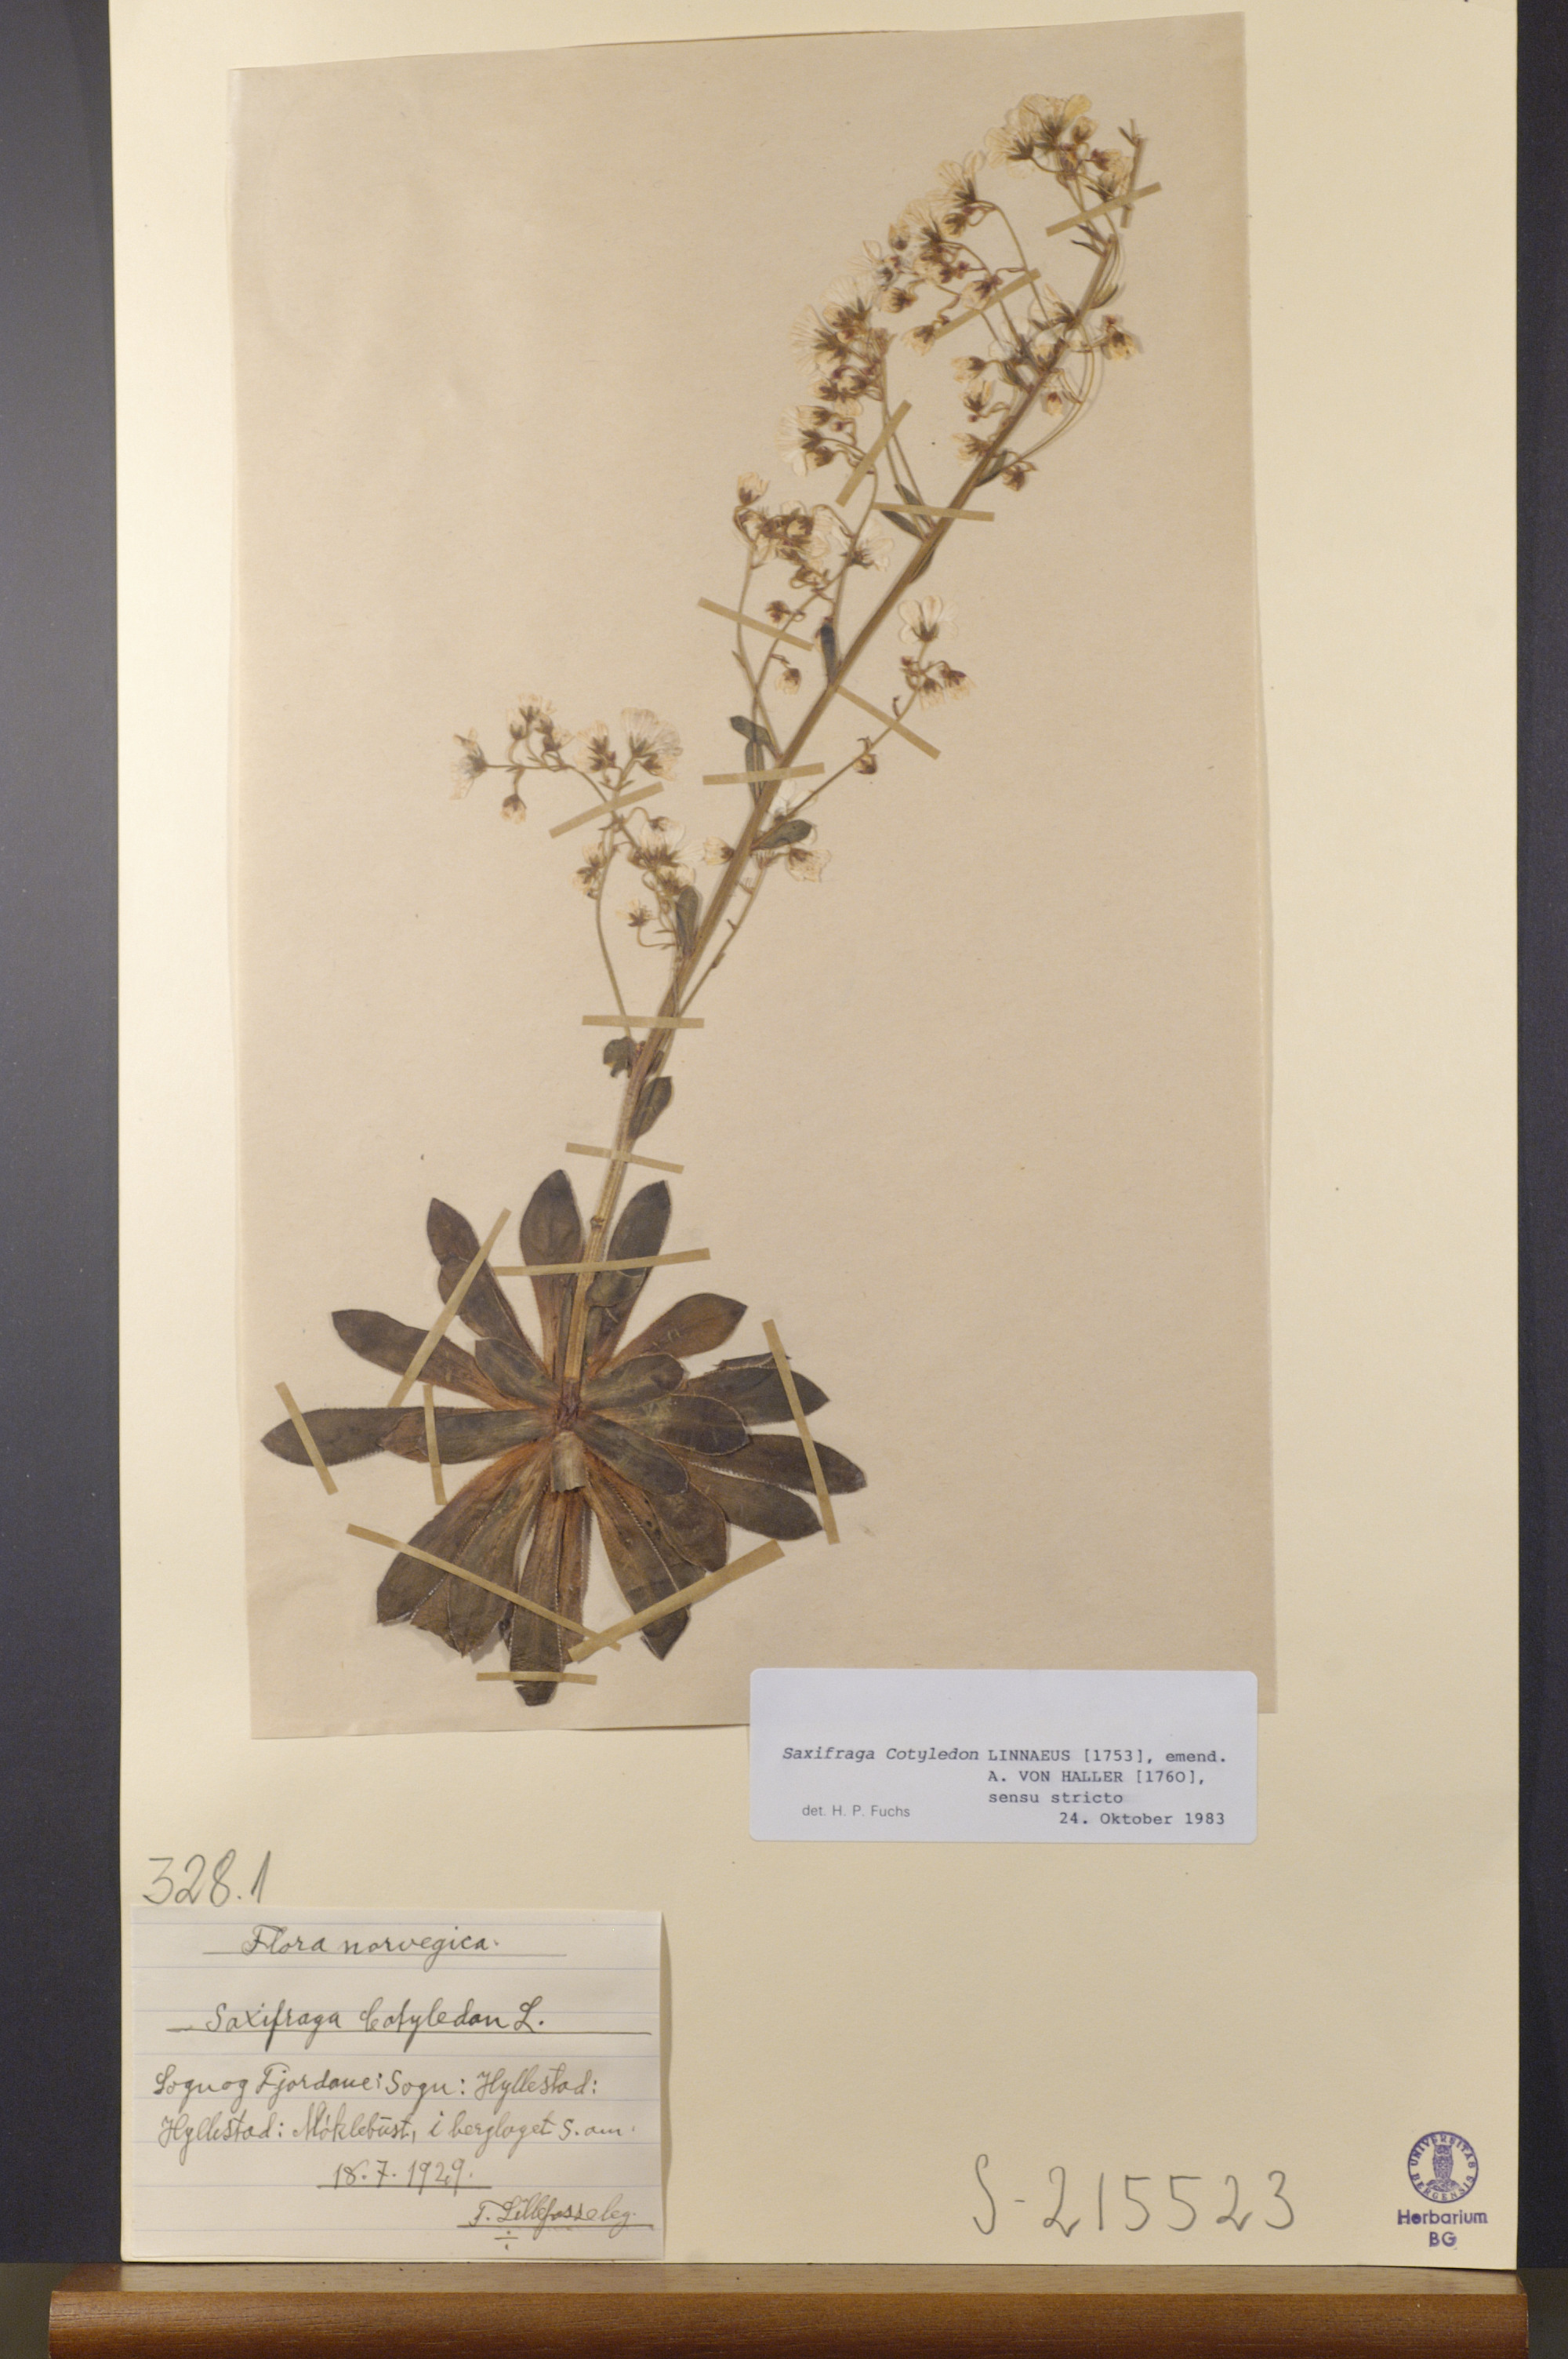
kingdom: Plantae
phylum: Tracheophyta
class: Magnoliopsida
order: Saxifragales
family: Saxifragaceae
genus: Saxifraga
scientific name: Saxifraga cotyledon
